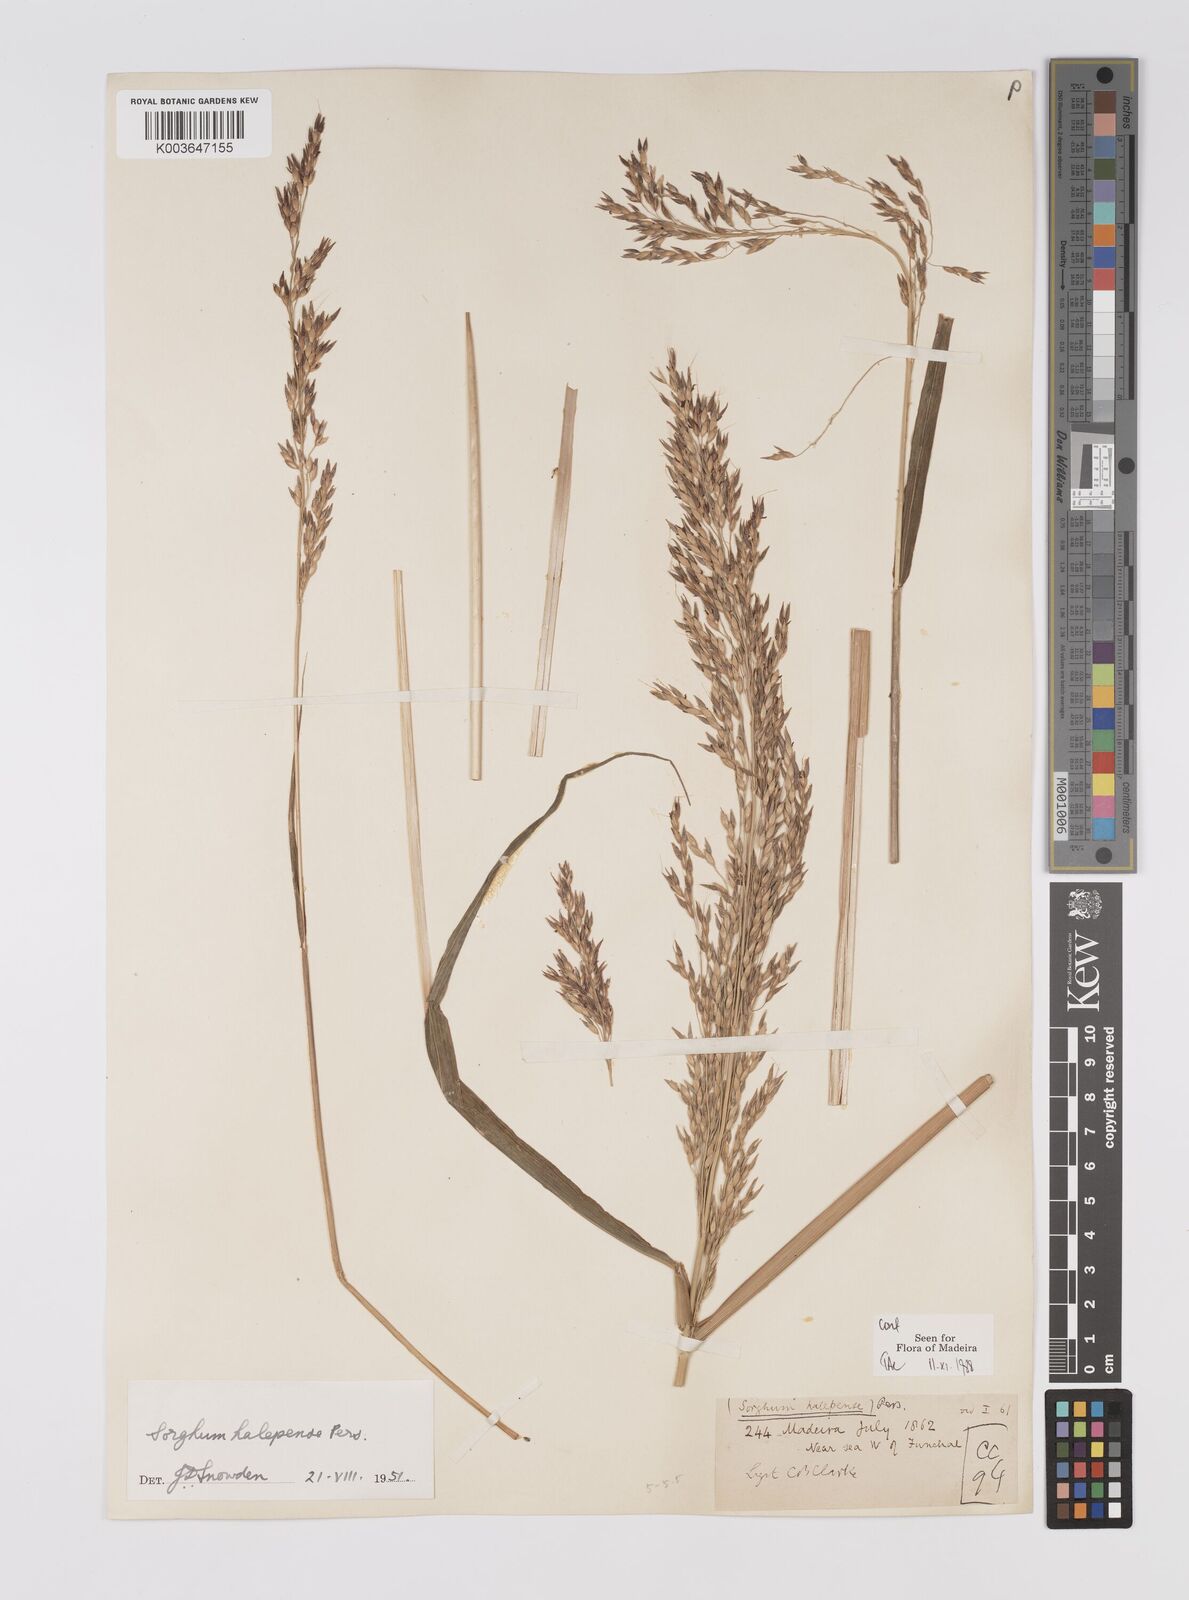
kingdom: Plantae
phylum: Tracheophyta
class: Liliopsida
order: Poales
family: Poaceae
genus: Sorghum
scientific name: Sorghum halepense
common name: Johnson-grass
